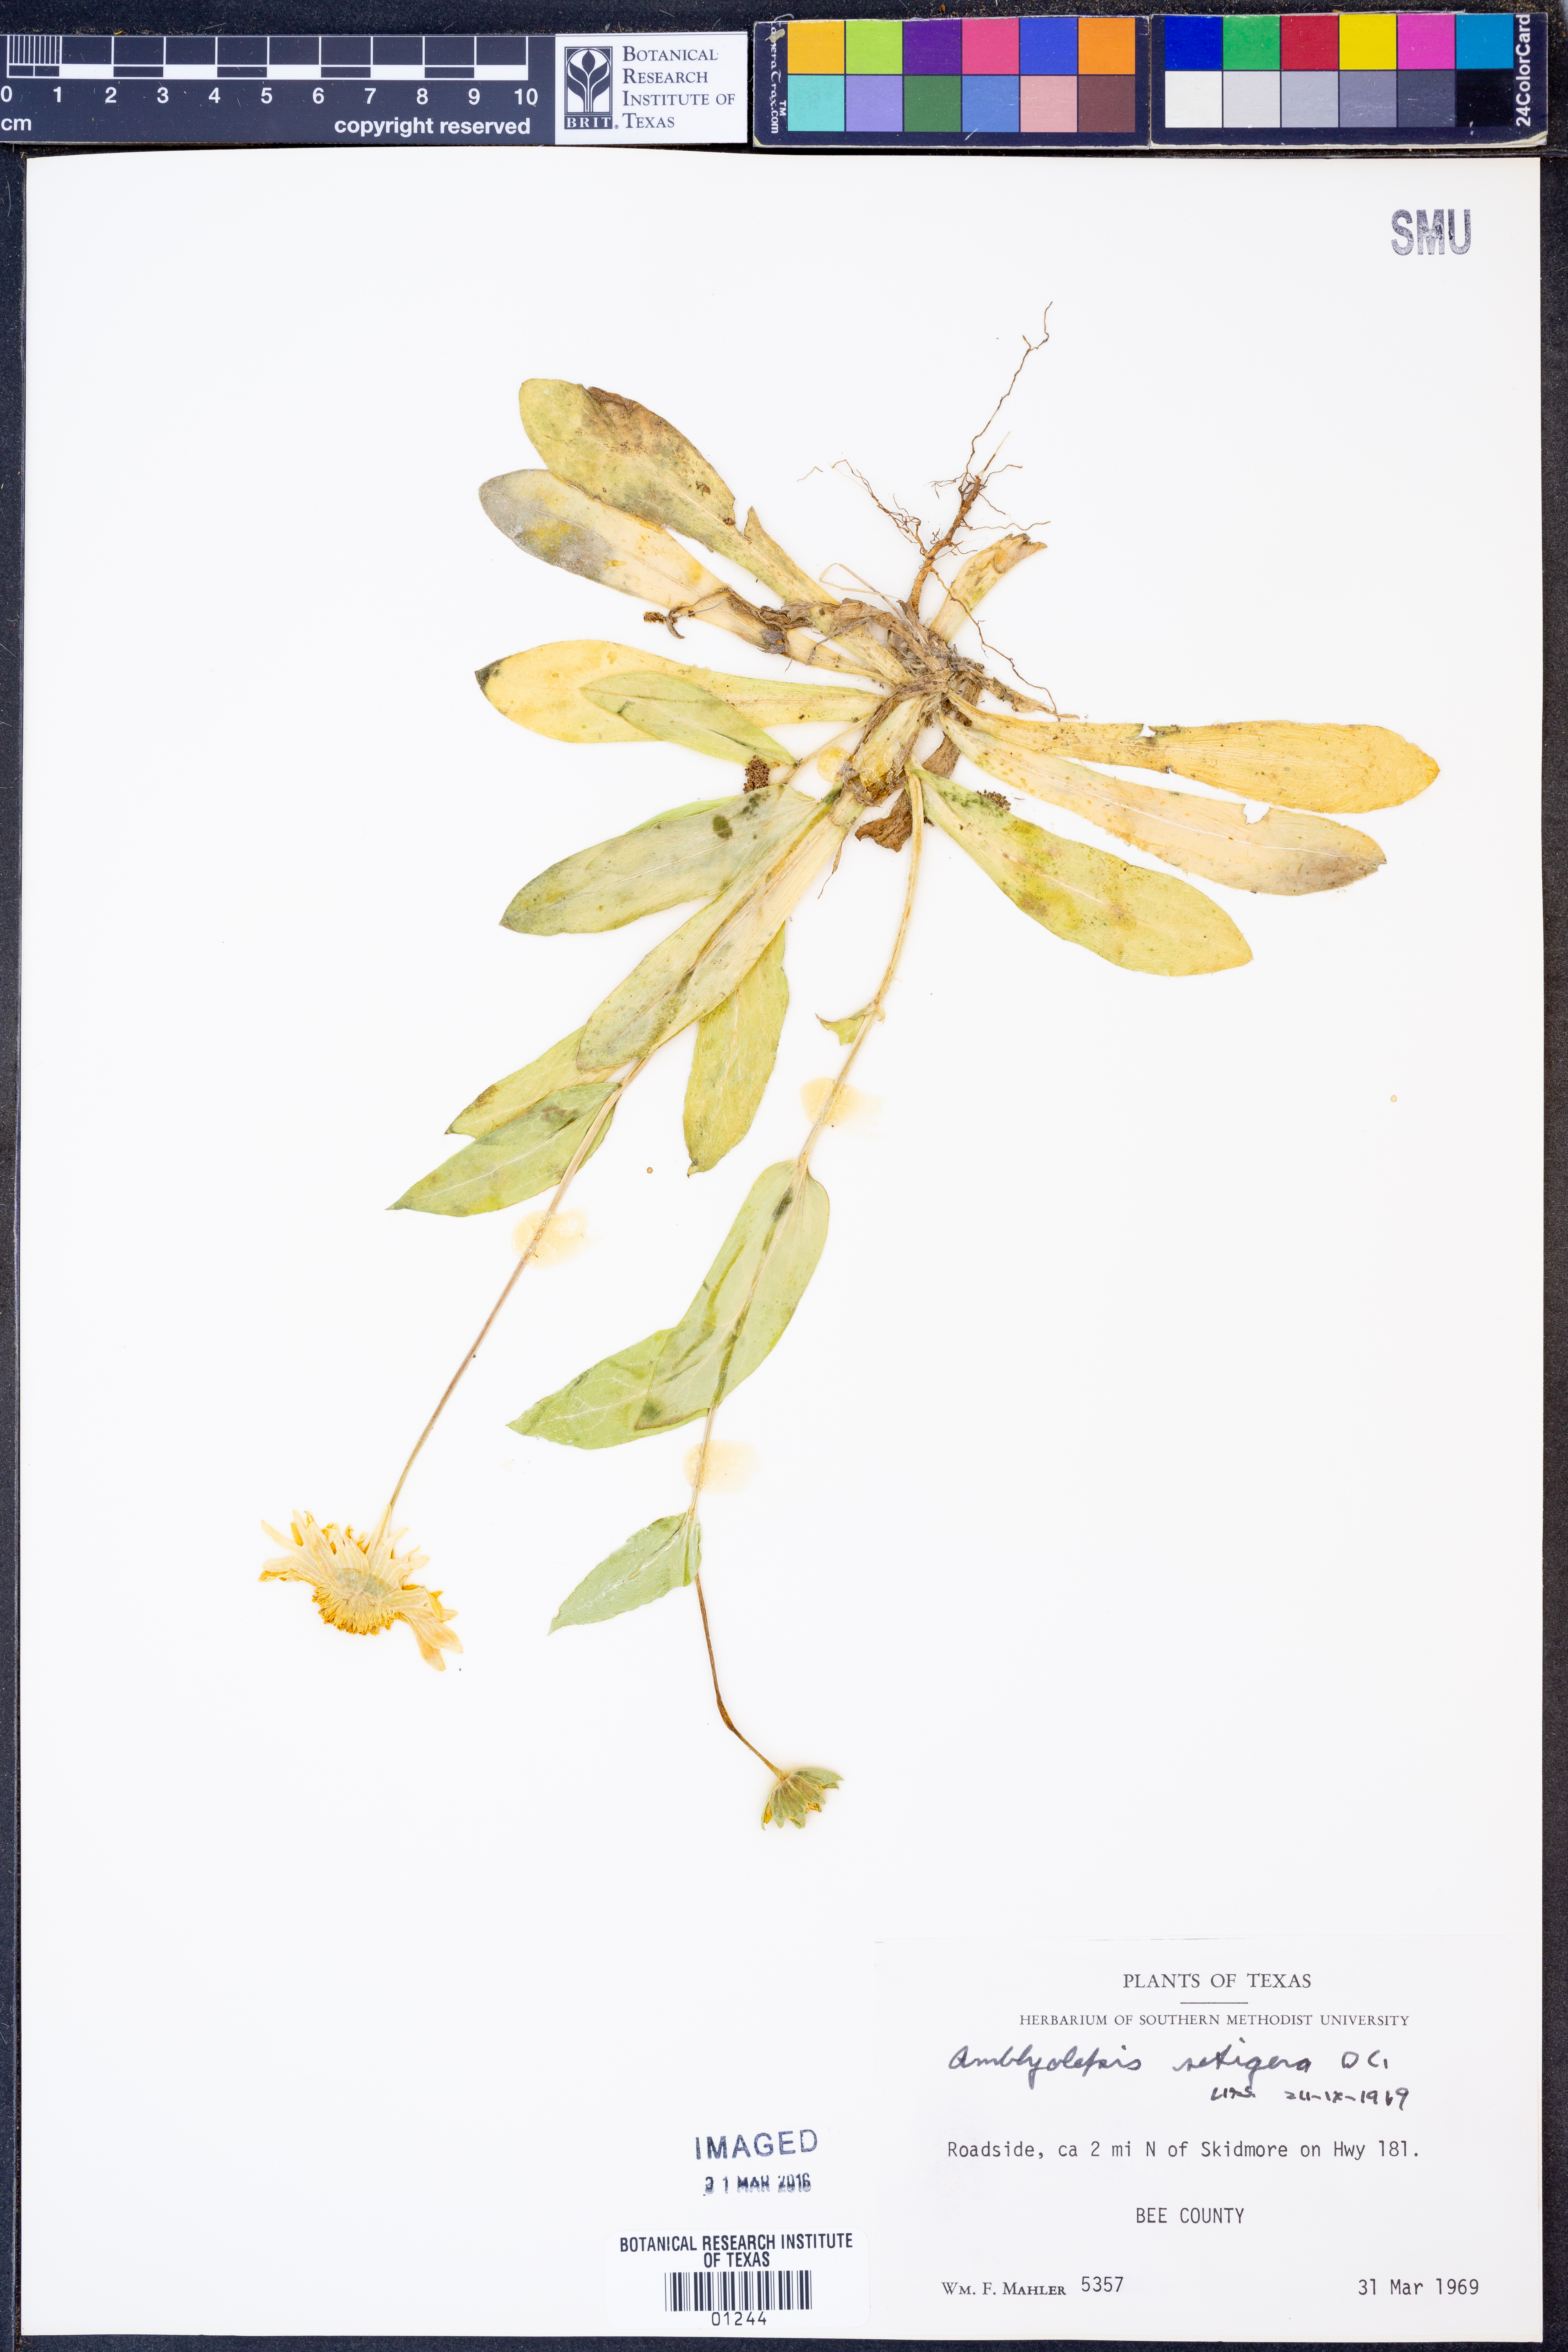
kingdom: Plantae
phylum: Tracheophyta
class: Magnoliopsida
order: Asterales
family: Asteraceae
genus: Amblyolepis
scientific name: Amblyolepis setigera
